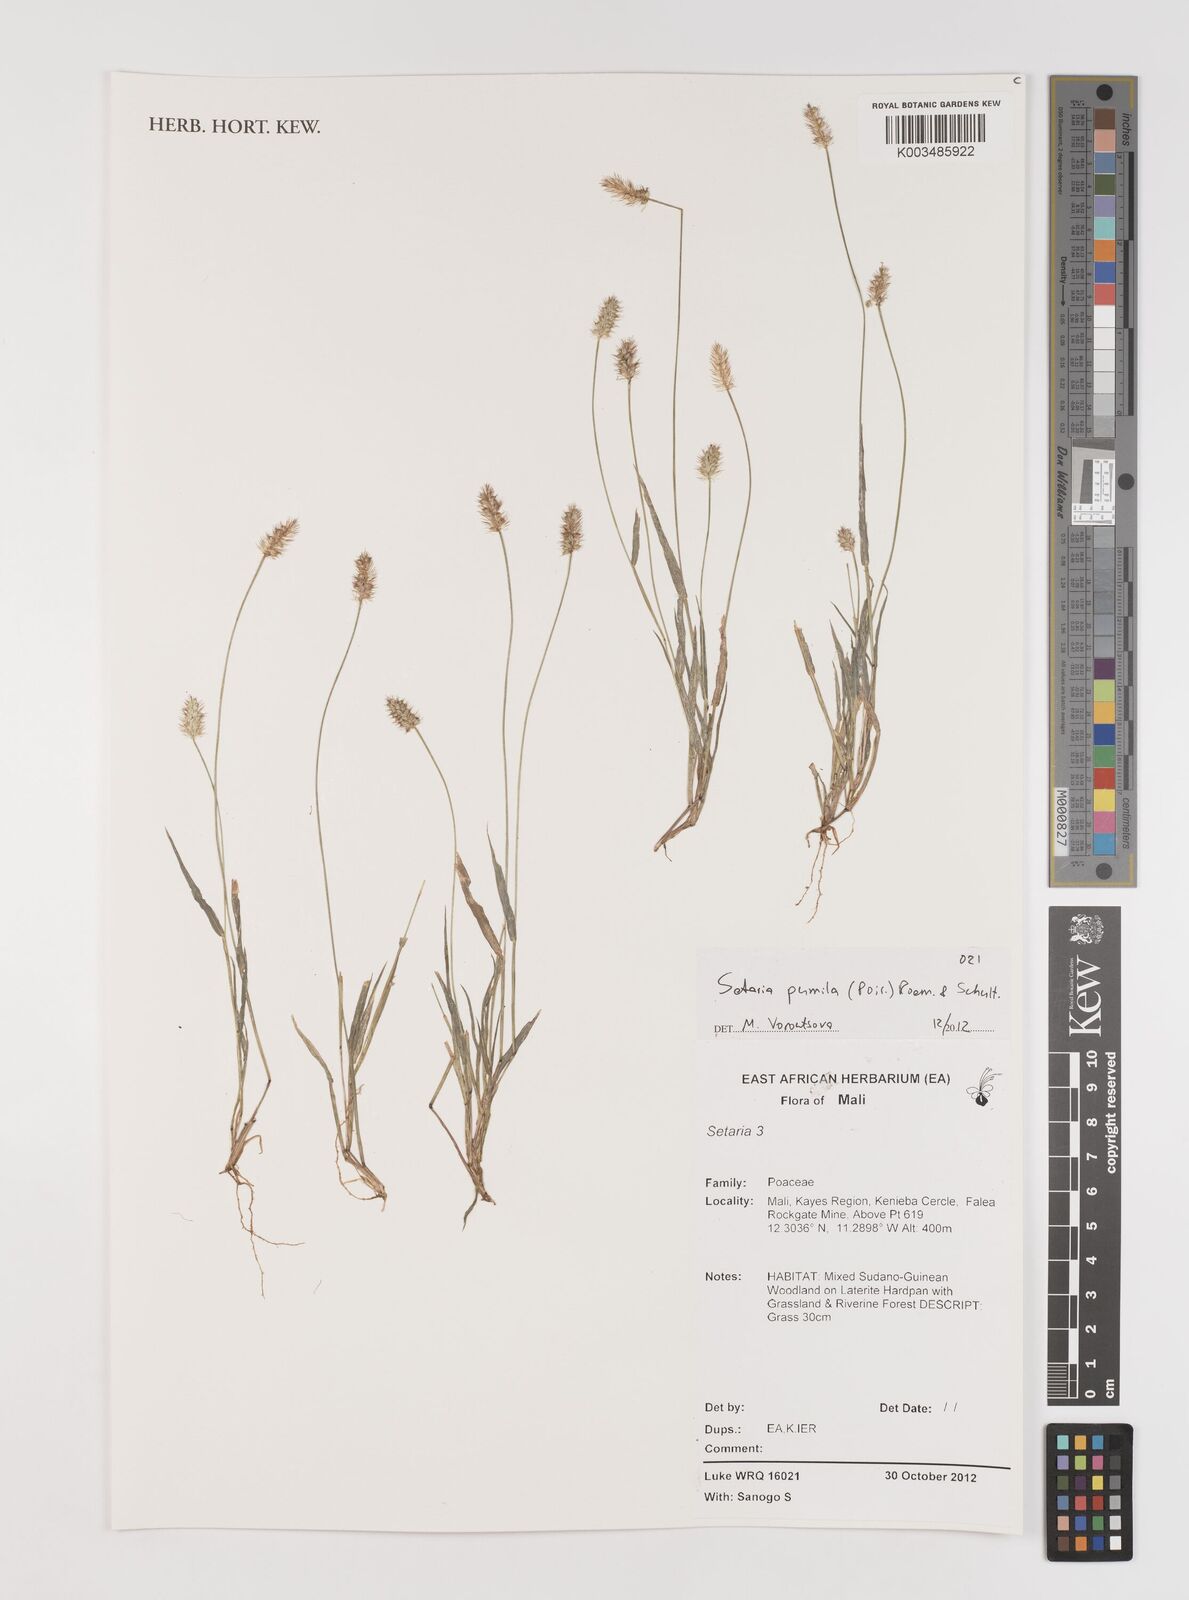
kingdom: Plantae
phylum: Tracheophyta
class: Liliopsida
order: Poales
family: Poaceae
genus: Setaria
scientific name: Setaria pumila
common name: Yellow bristle-grass
